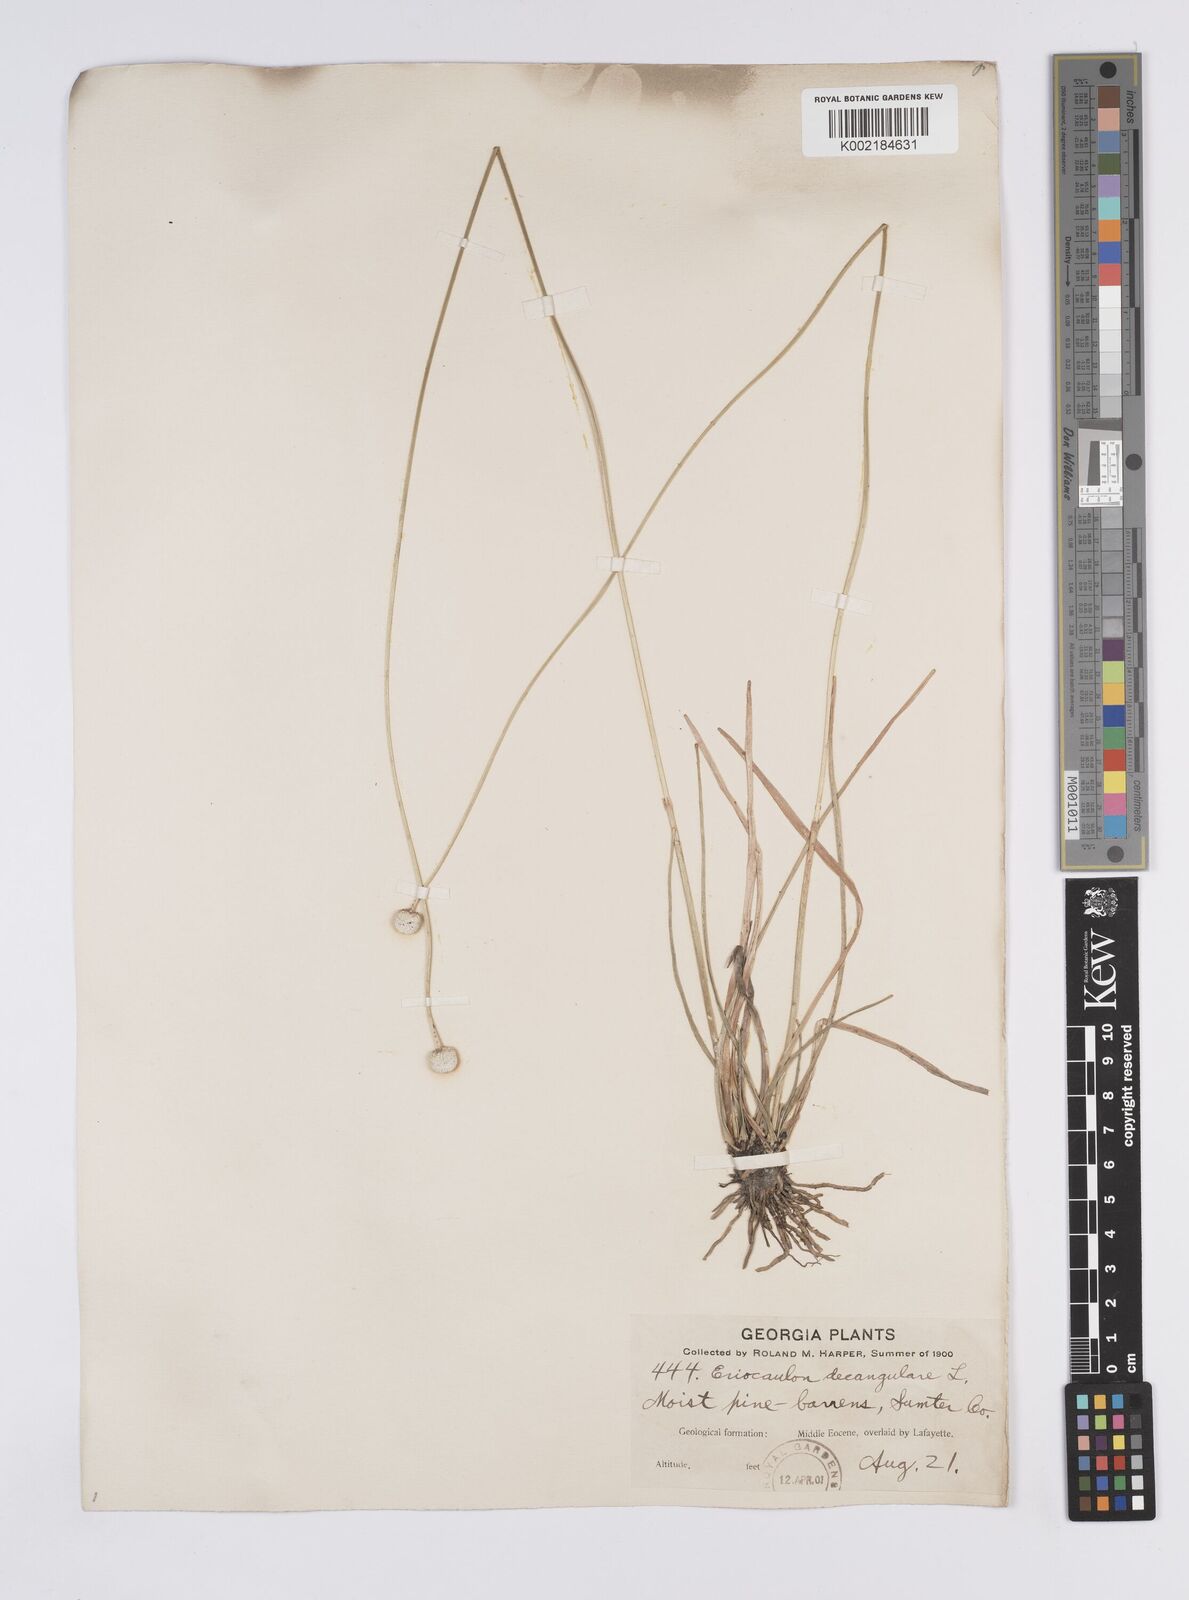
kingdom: Plantae
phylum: Tracheophyta
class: Liliopsida
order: Poales
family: Eriocaulaceae
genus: Eriocaulon
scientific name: Eriocaulon decangulare
